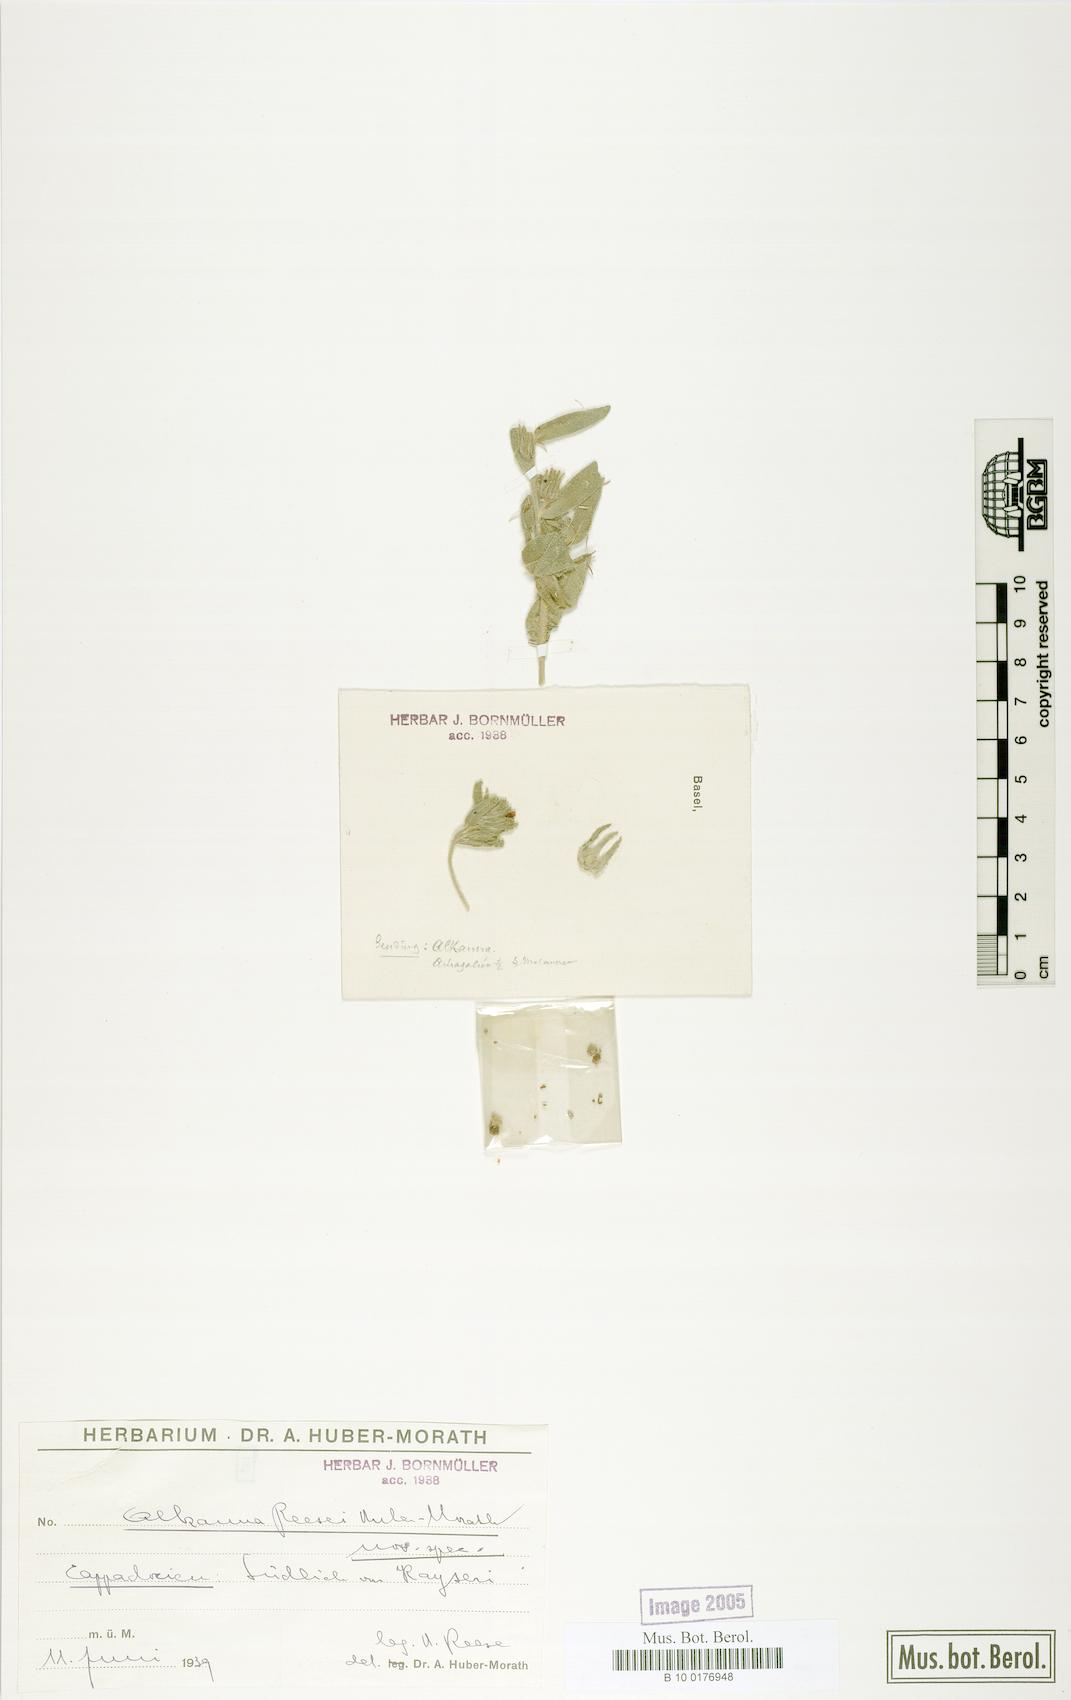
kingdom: Plantae
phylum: Tracheophyta
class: Magnoliopsida
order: Boraginales
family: Boraginaceae
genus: Alkanna
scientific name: Alkanna cappadocica
